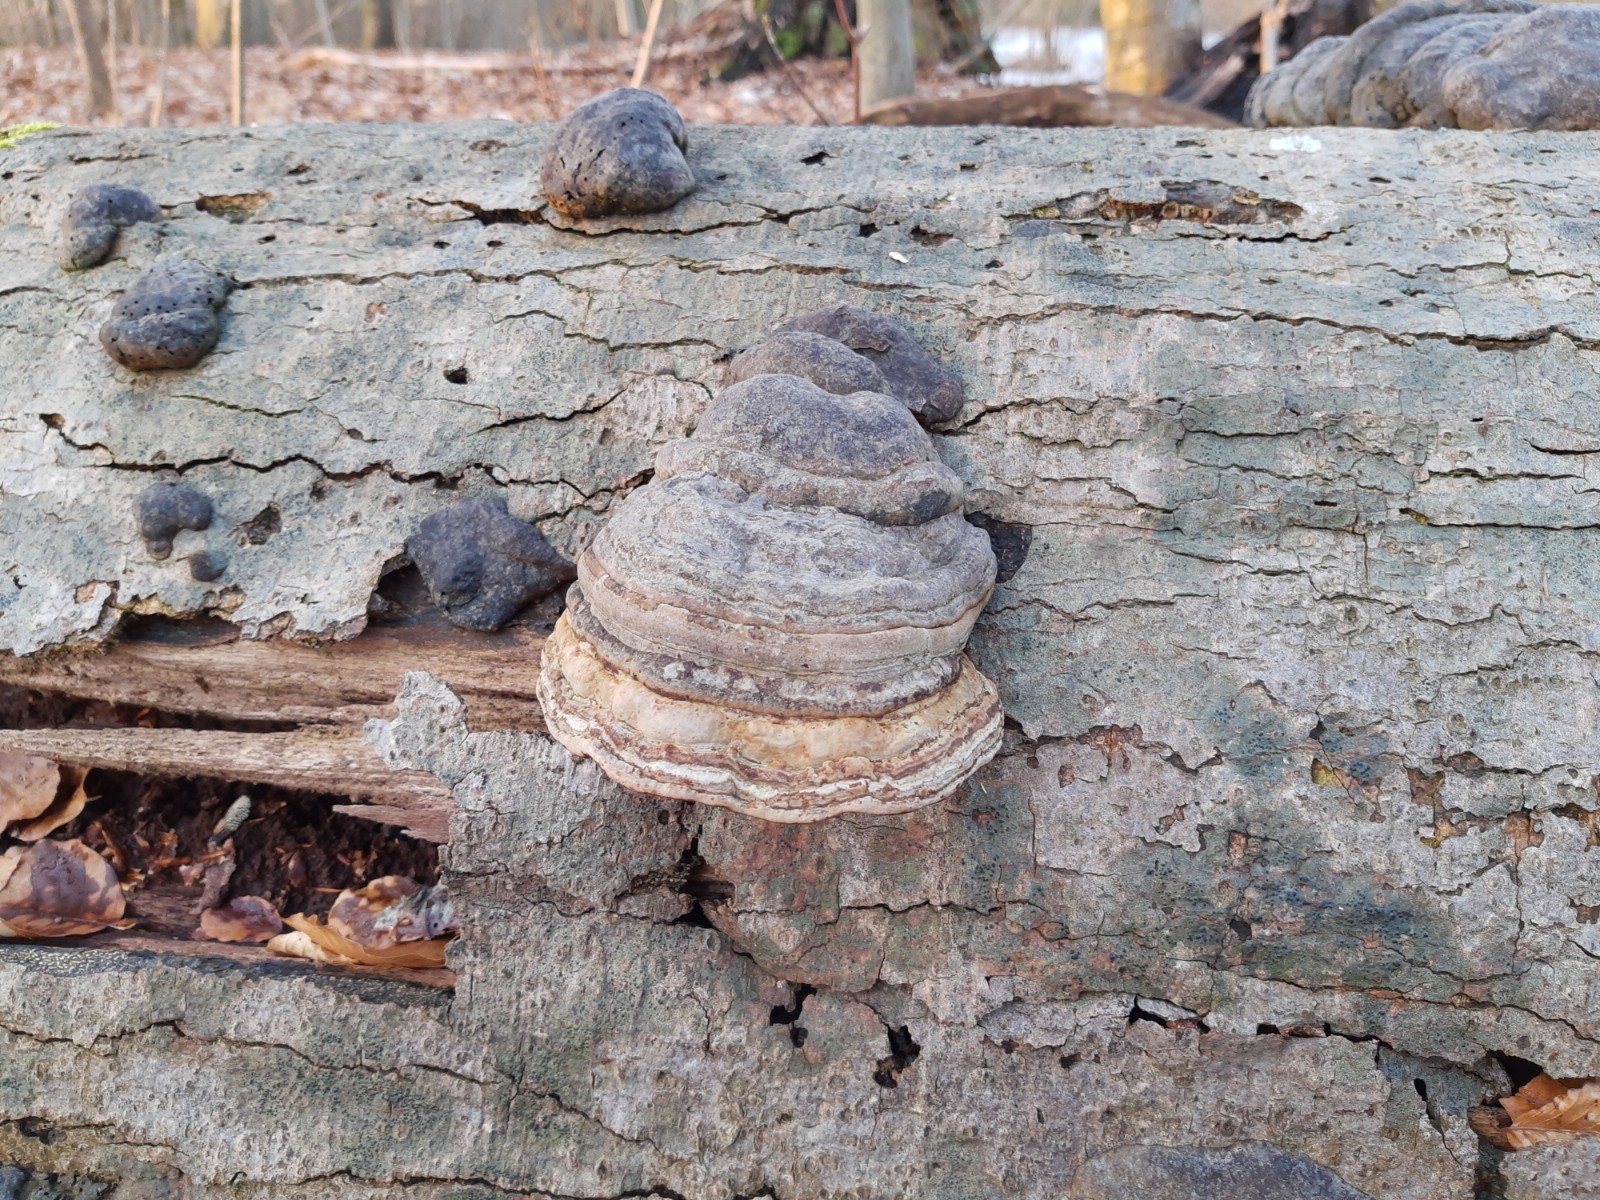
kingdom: Fungi
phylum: Basidiomycota
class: Agaricomycetes
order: Polyporales
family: Polyporaceae
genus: Fomes
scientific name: Fomes fomentarius
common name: tøndersvamp
